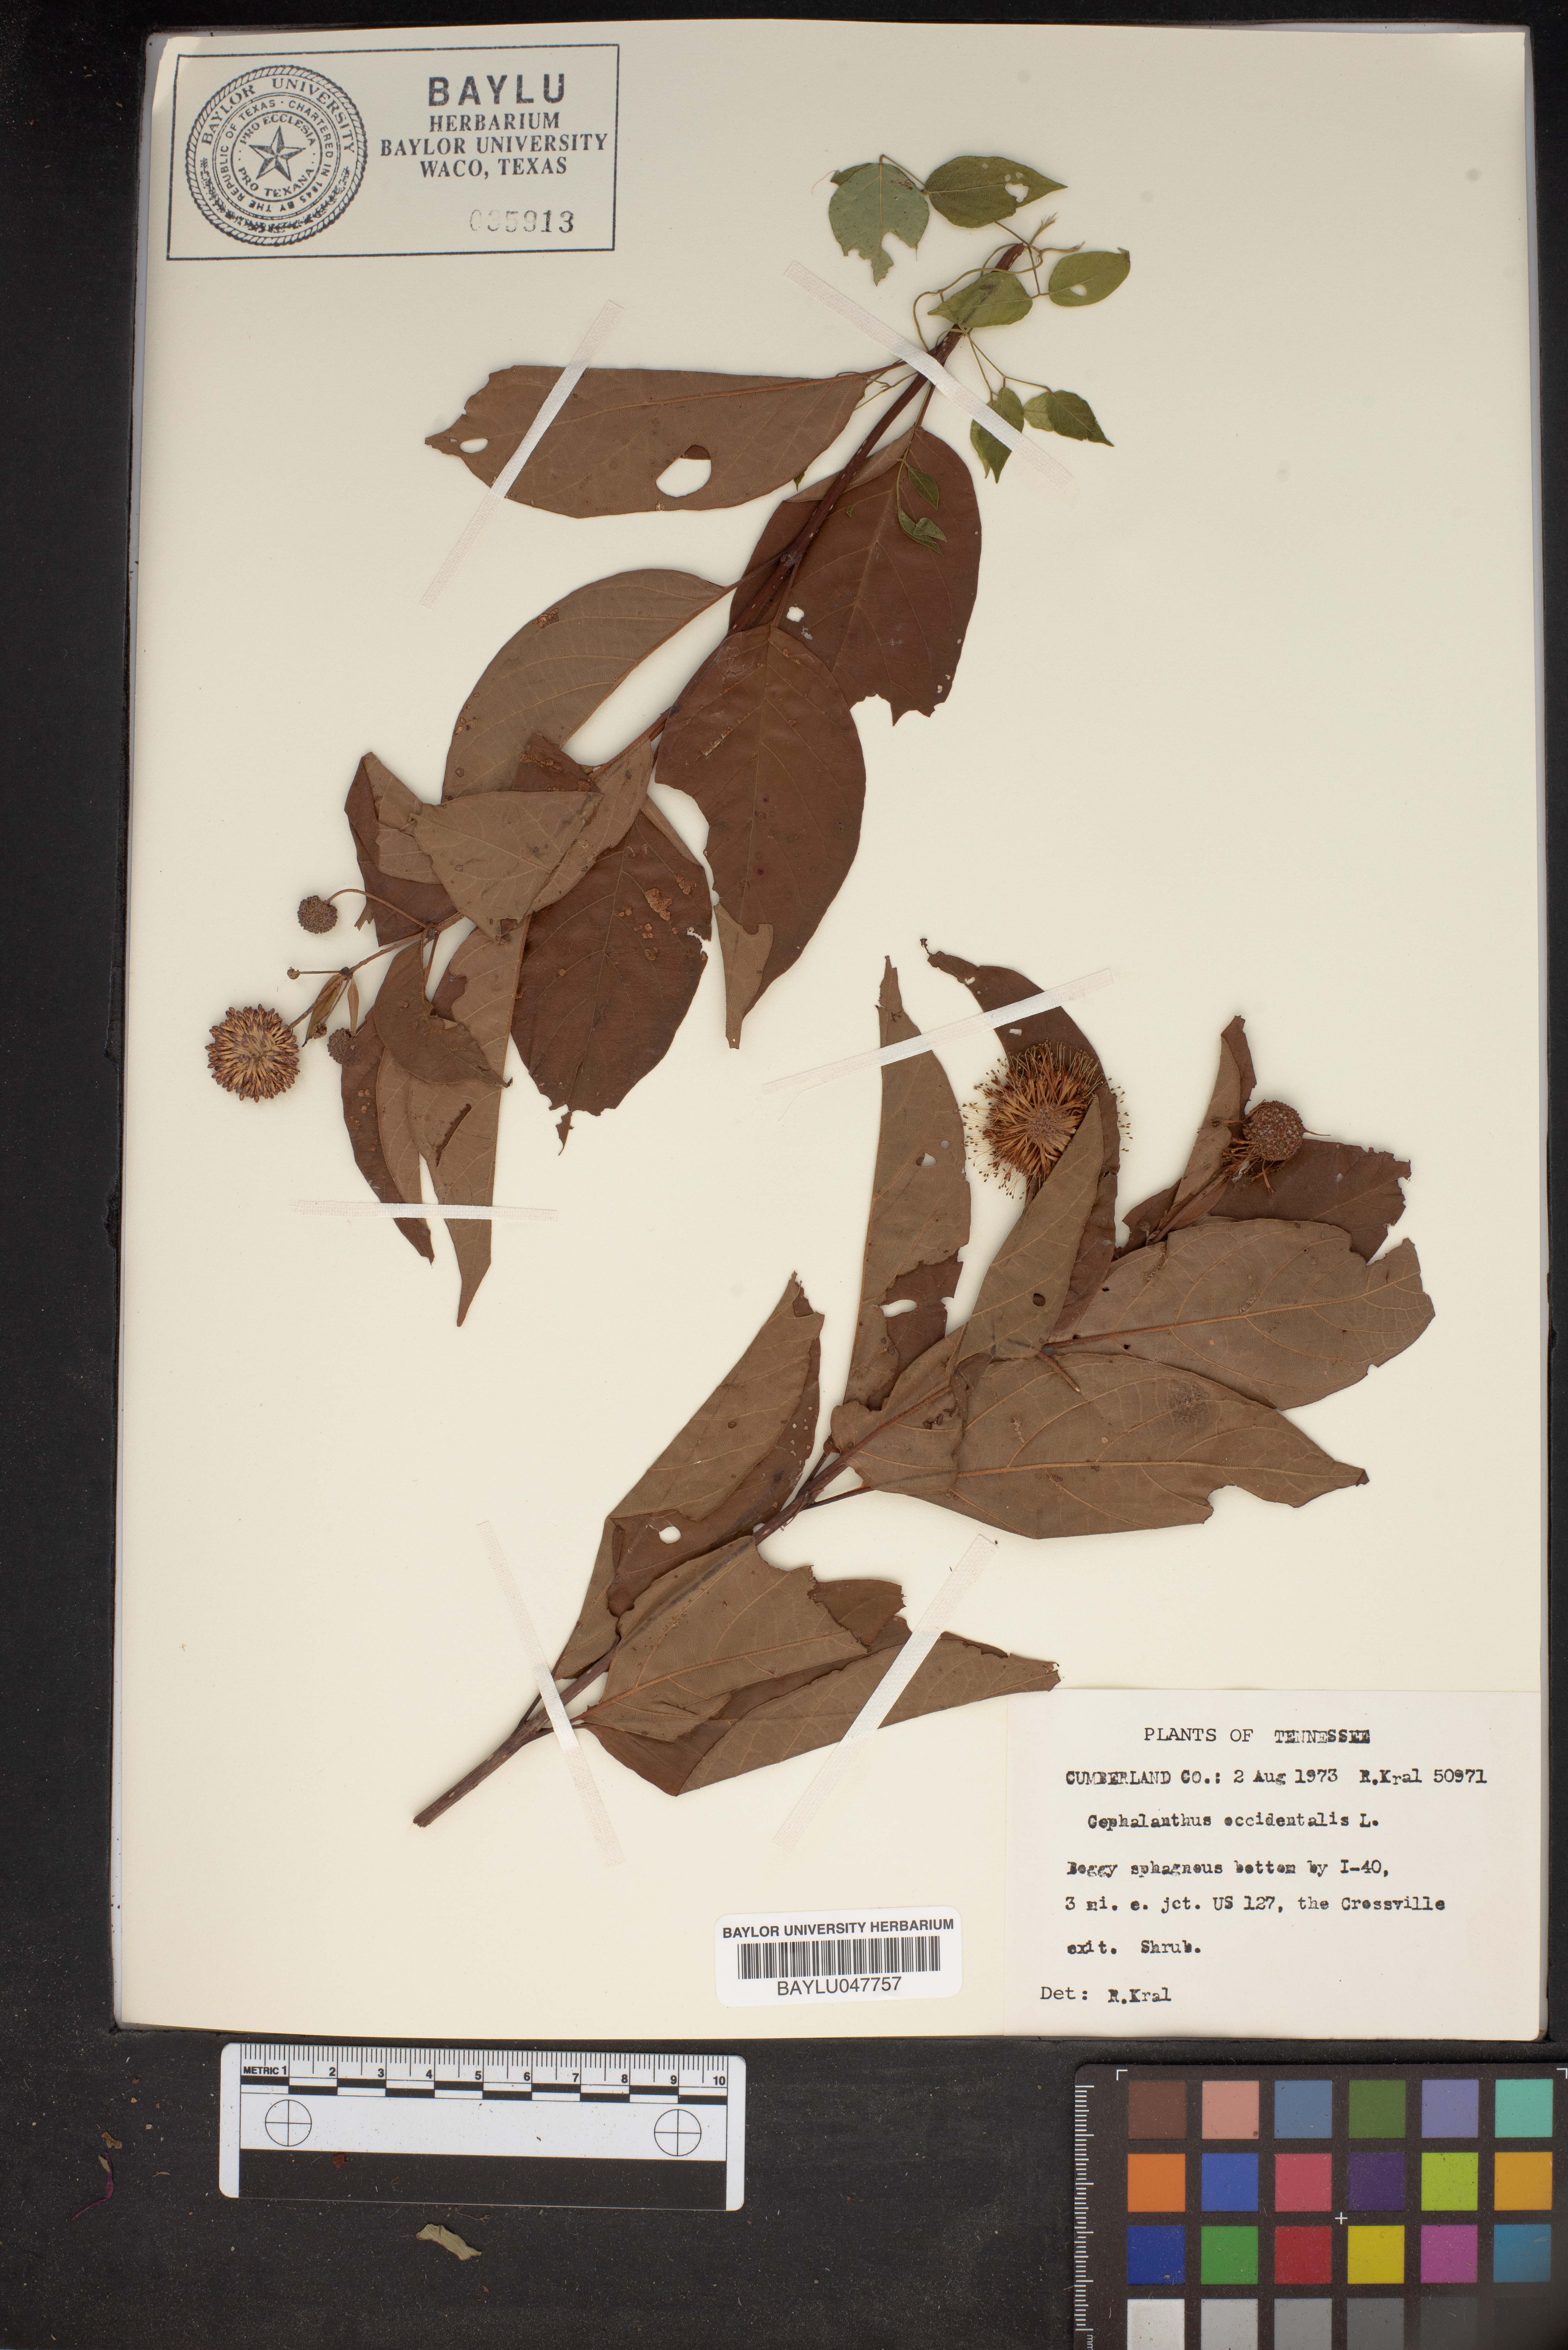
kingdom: Plantae
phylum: Tracheophyta
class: Magnoliopsida
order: Gentianales
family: Rubiaceae
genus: Cephalanthus
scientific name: Cephalanthus occidentalis
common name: Button-willow
